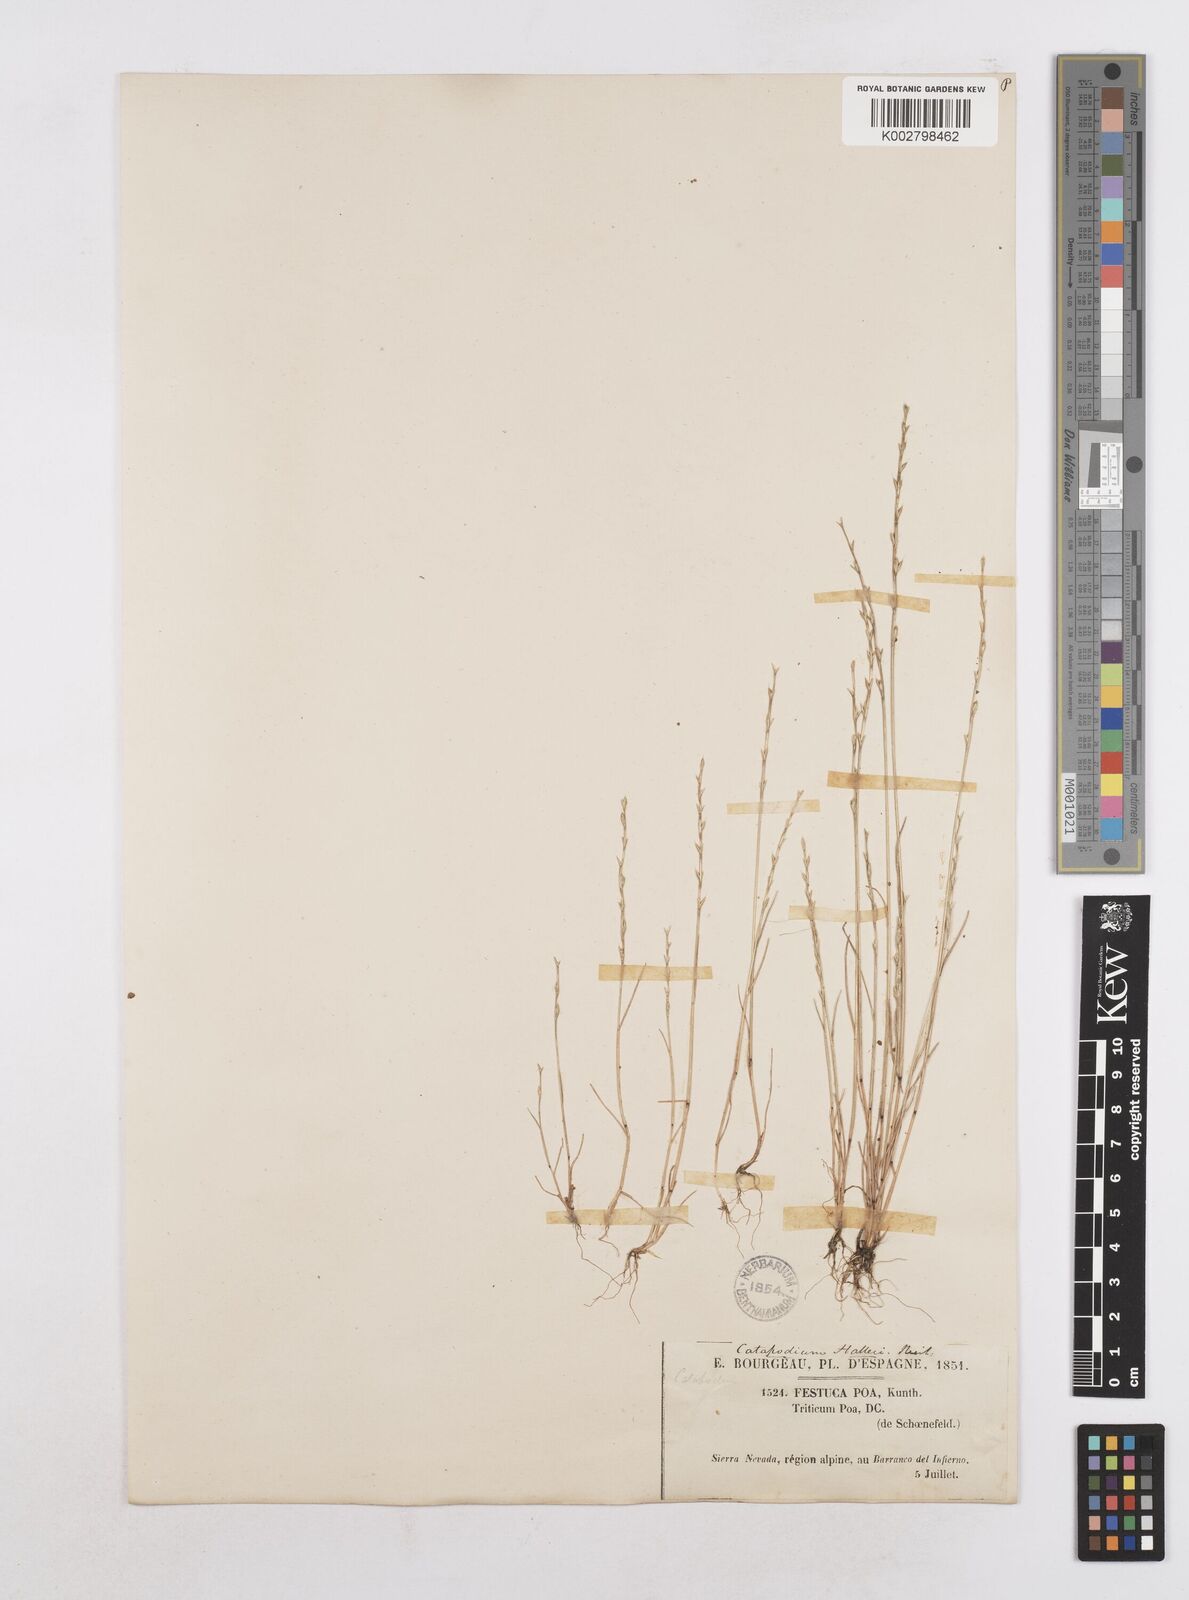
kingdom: Plantae
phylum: Tracheophyta
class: Liliopsida
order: Poales
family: Poaceae
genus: Festuca
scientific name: Festuca lachenalii
